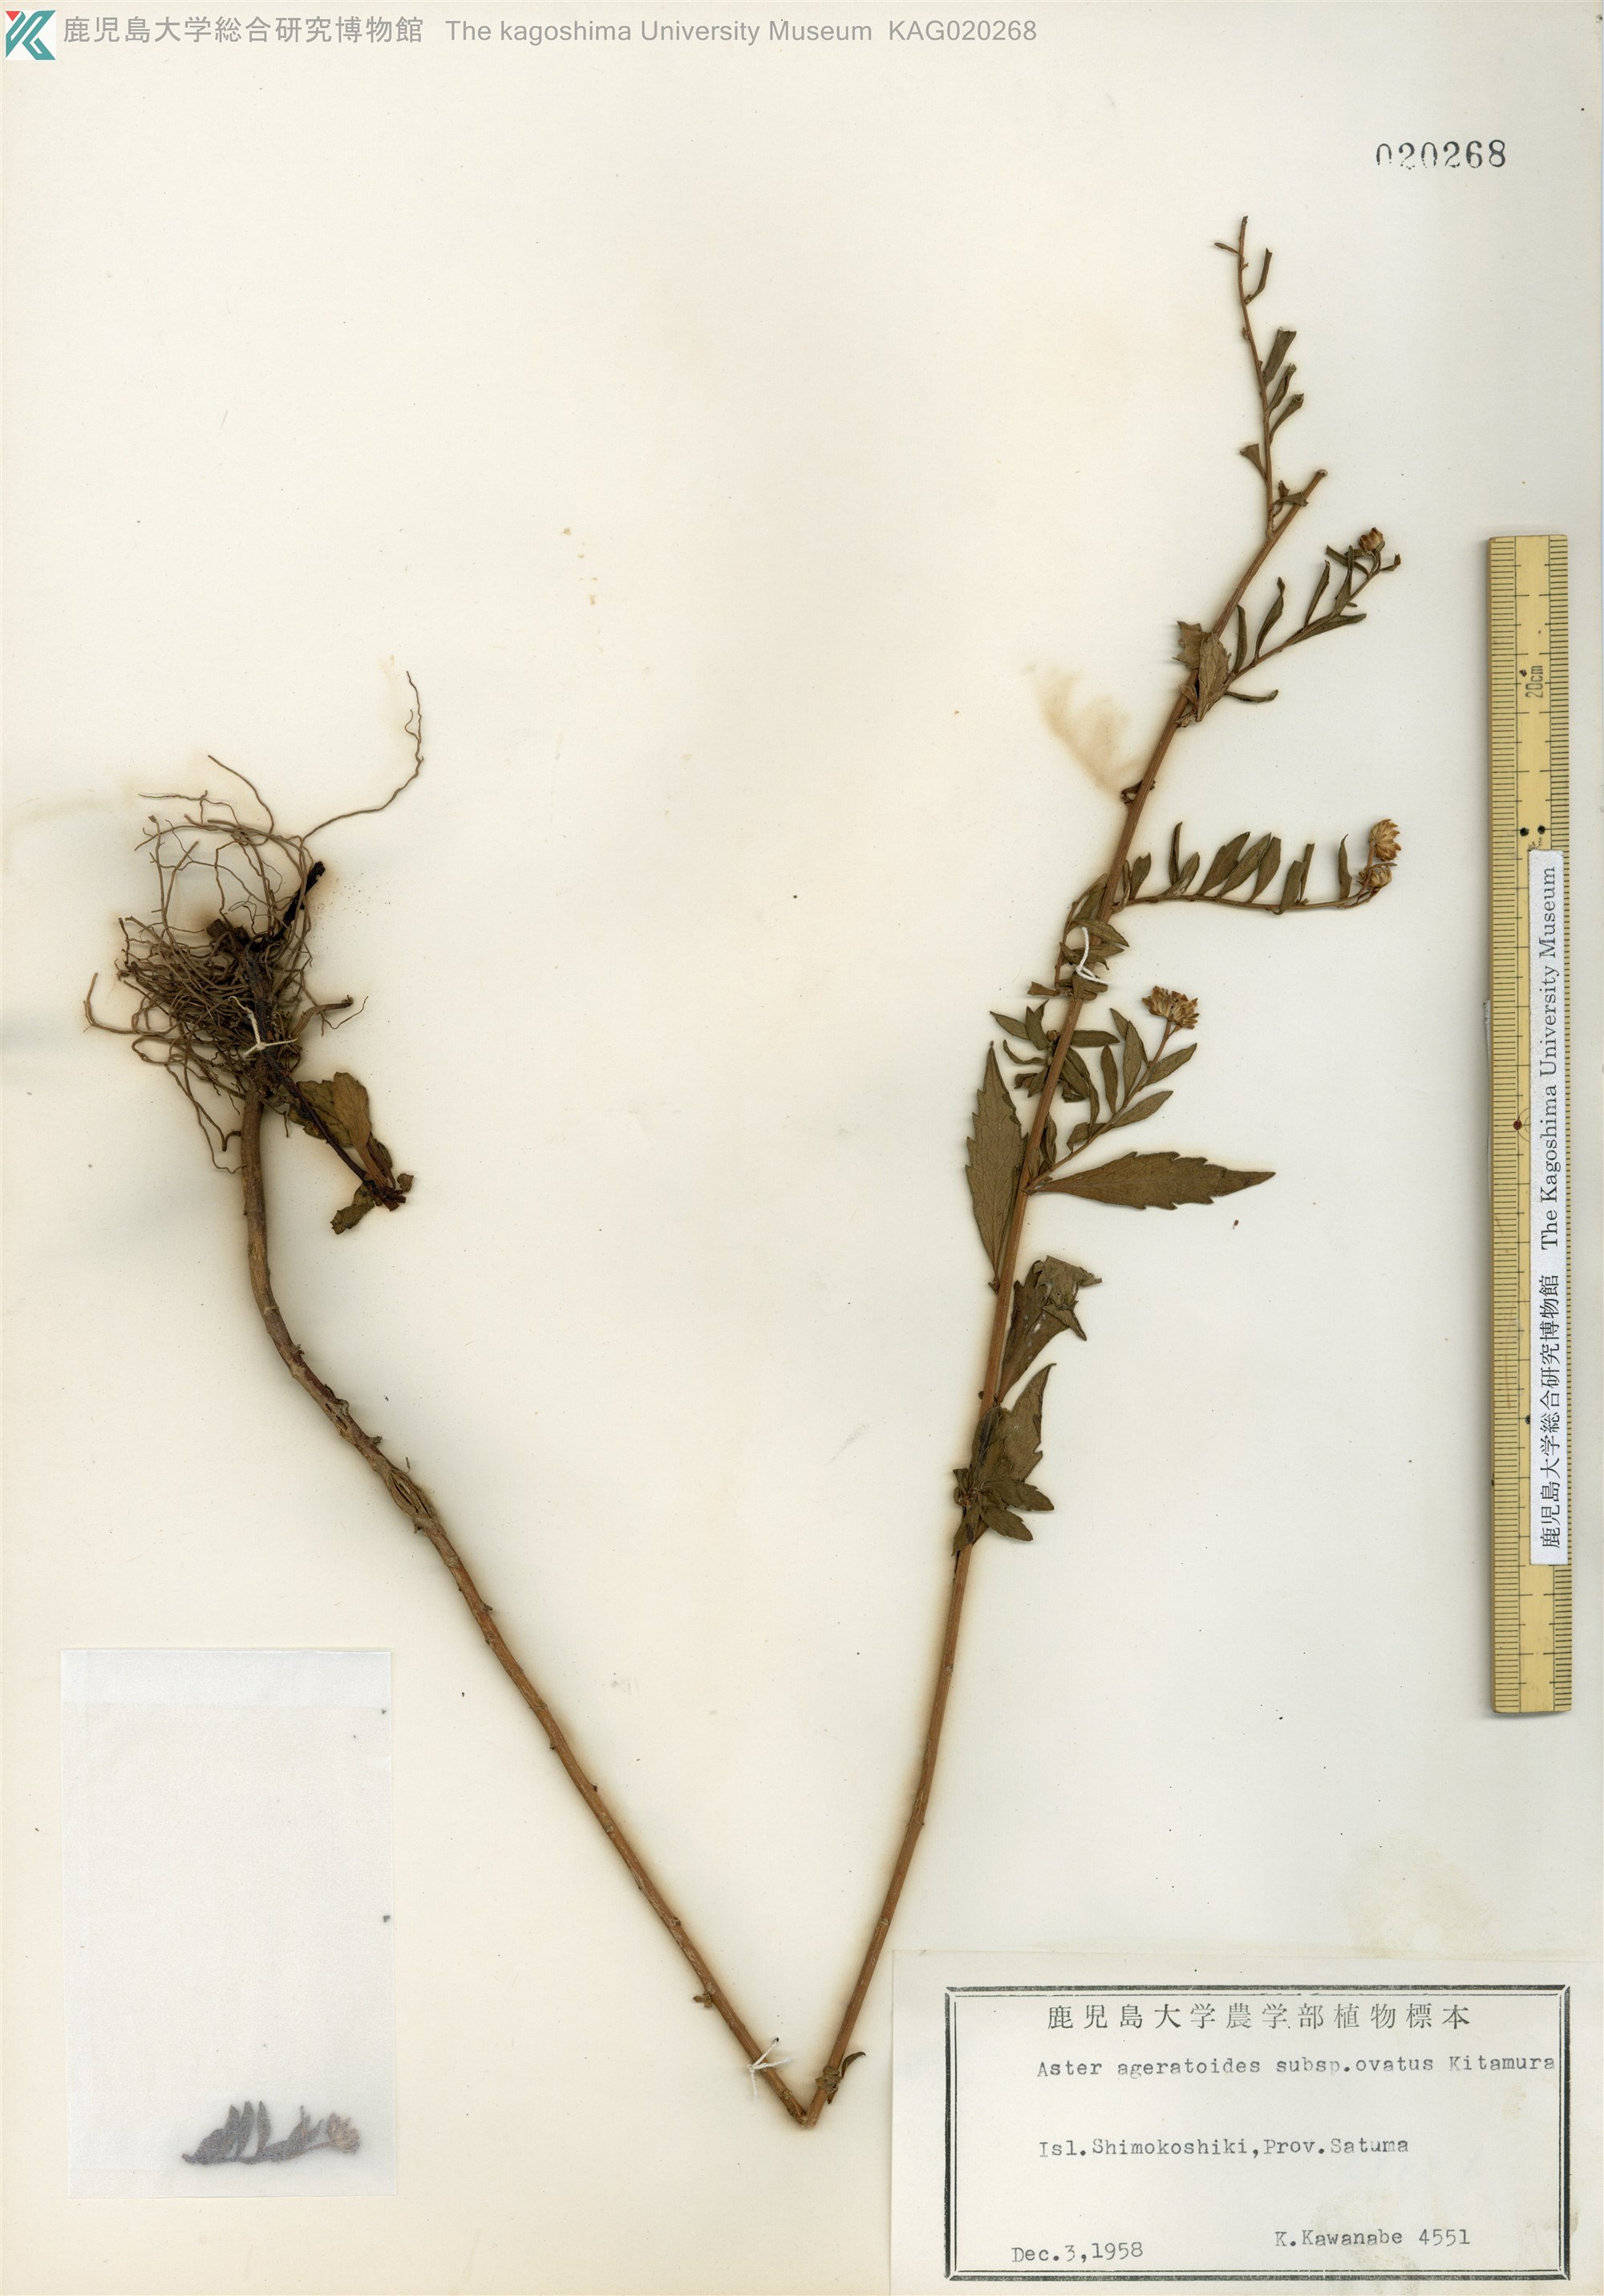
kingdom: Plantae
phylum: Tracheophyta
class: Magnoliopsida
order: Asterales
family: Asteraceae
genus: Aster
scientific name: Aster microcephalus
